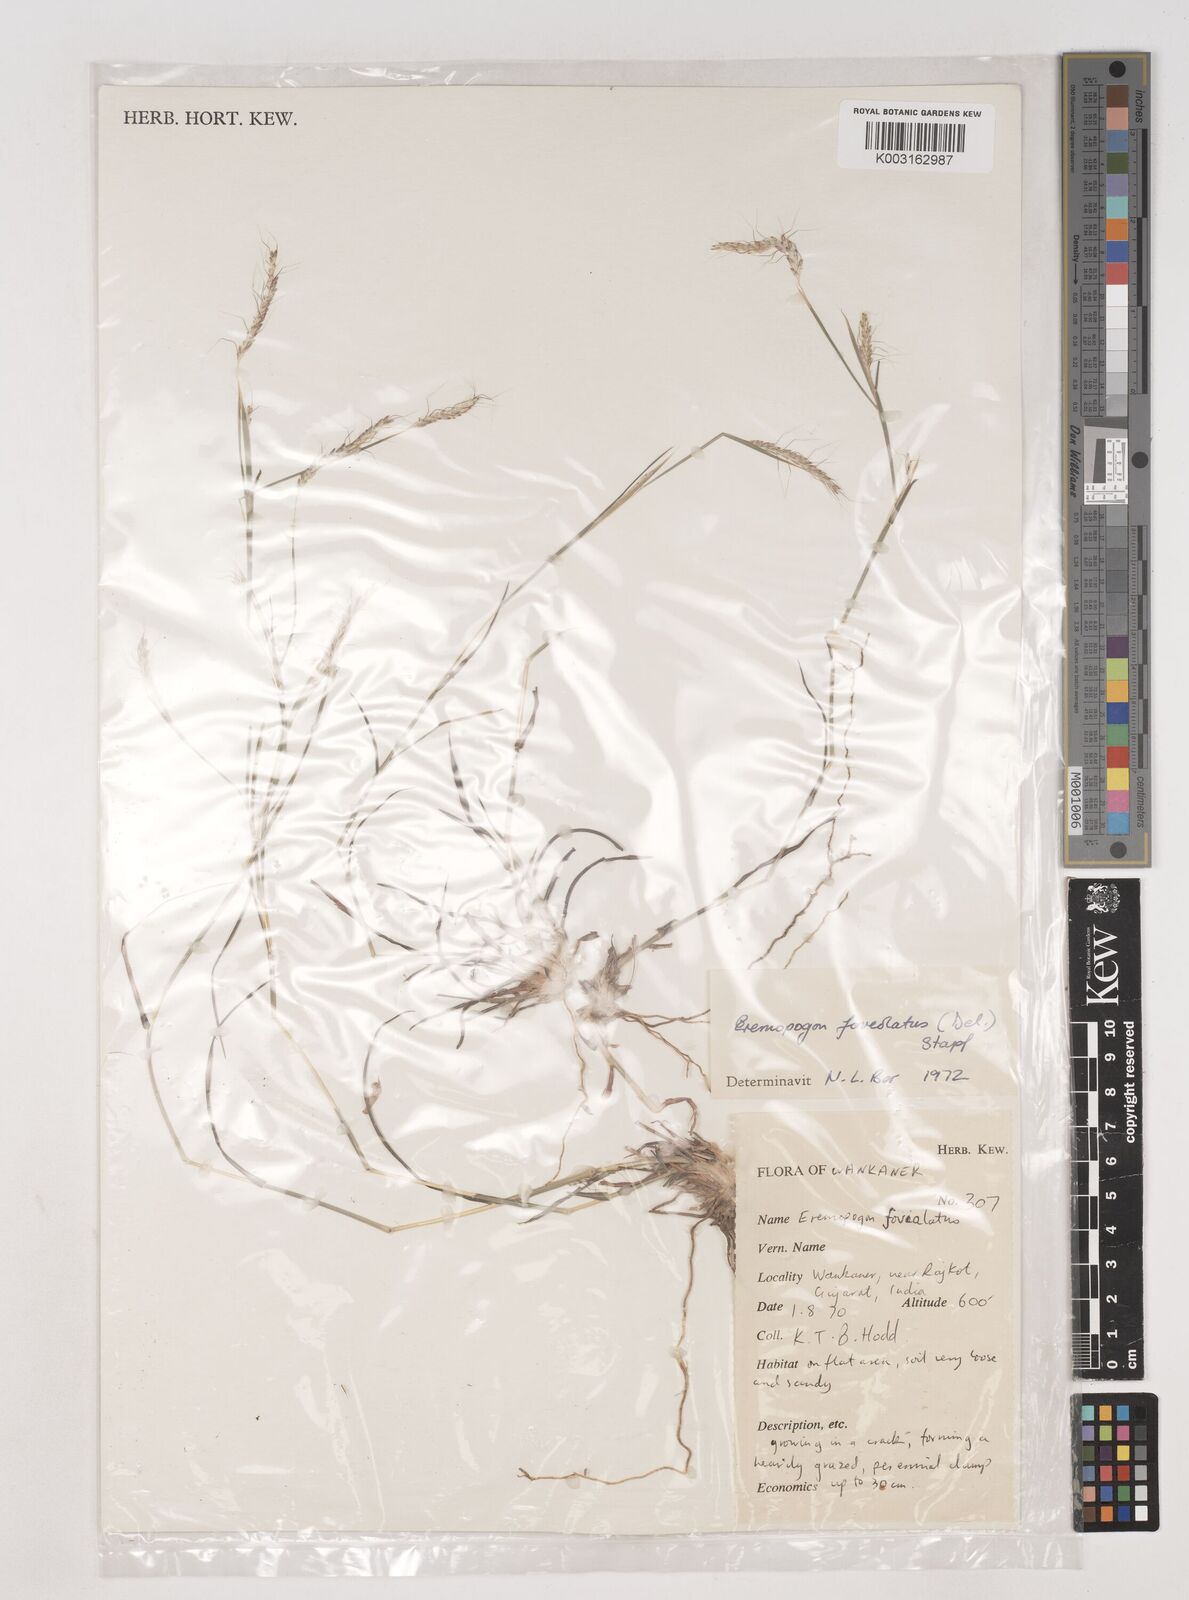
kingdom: Plantae
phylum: Tracheophyta
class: Liliopsida
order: Poales
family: Poaceae
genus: Dichanthium
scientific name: Dichanthium foveolatum
